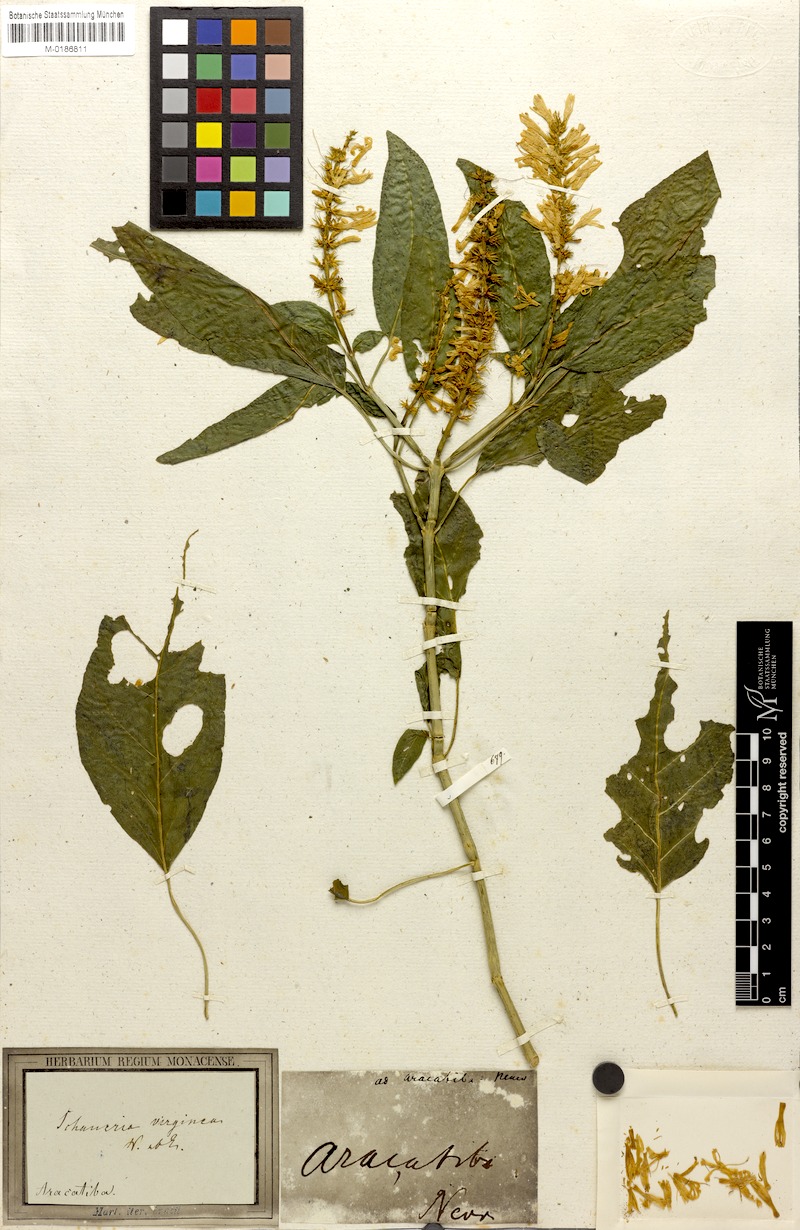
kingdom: Plantae
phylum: Tracheophyta
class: Magnoliopsida
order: Lamiales
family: Acanthaceae
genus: Schaueria
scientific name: Schaueria litoralis
